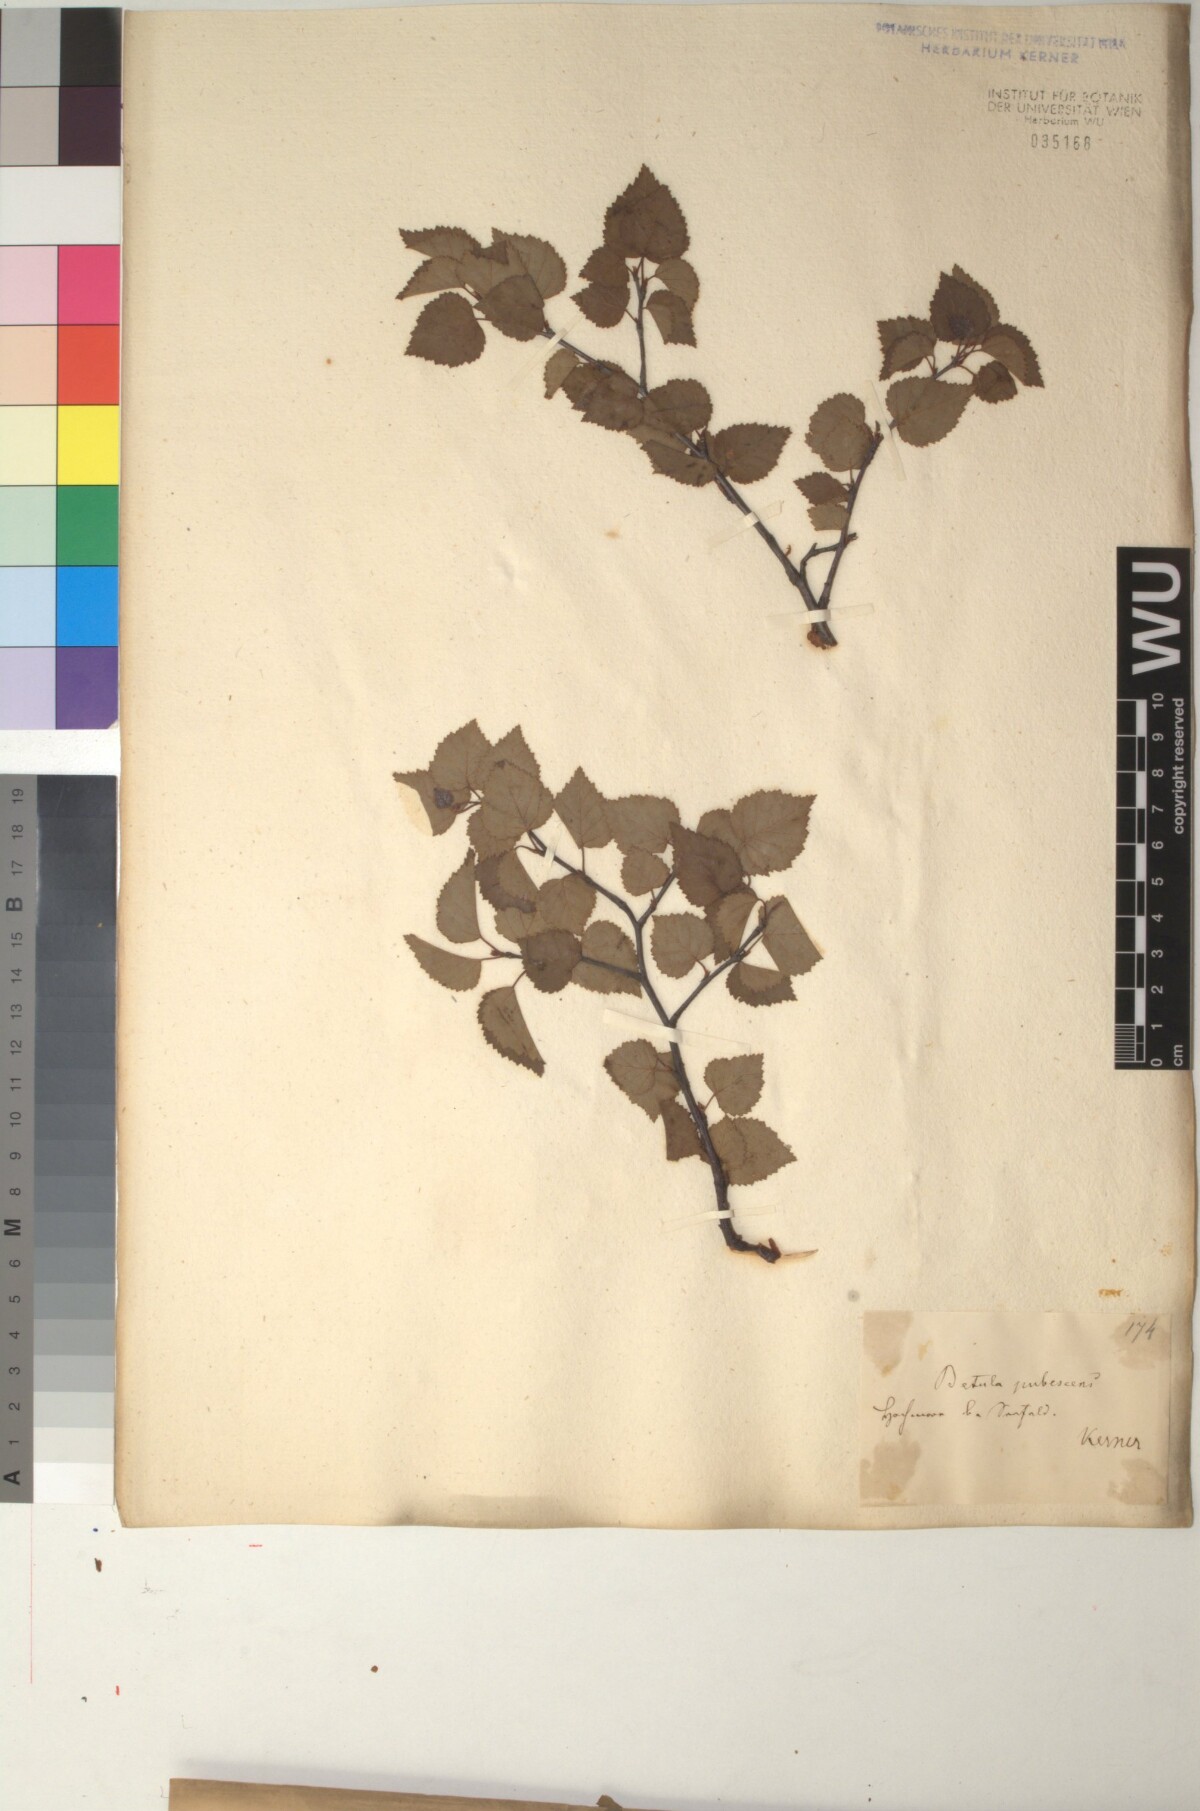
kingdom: Plantae
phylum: Tracheophyta
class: Magnoliopsida
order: Fagales
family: Betulaceae
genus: Betula
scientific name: Betula pubescens
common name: Downy birch
